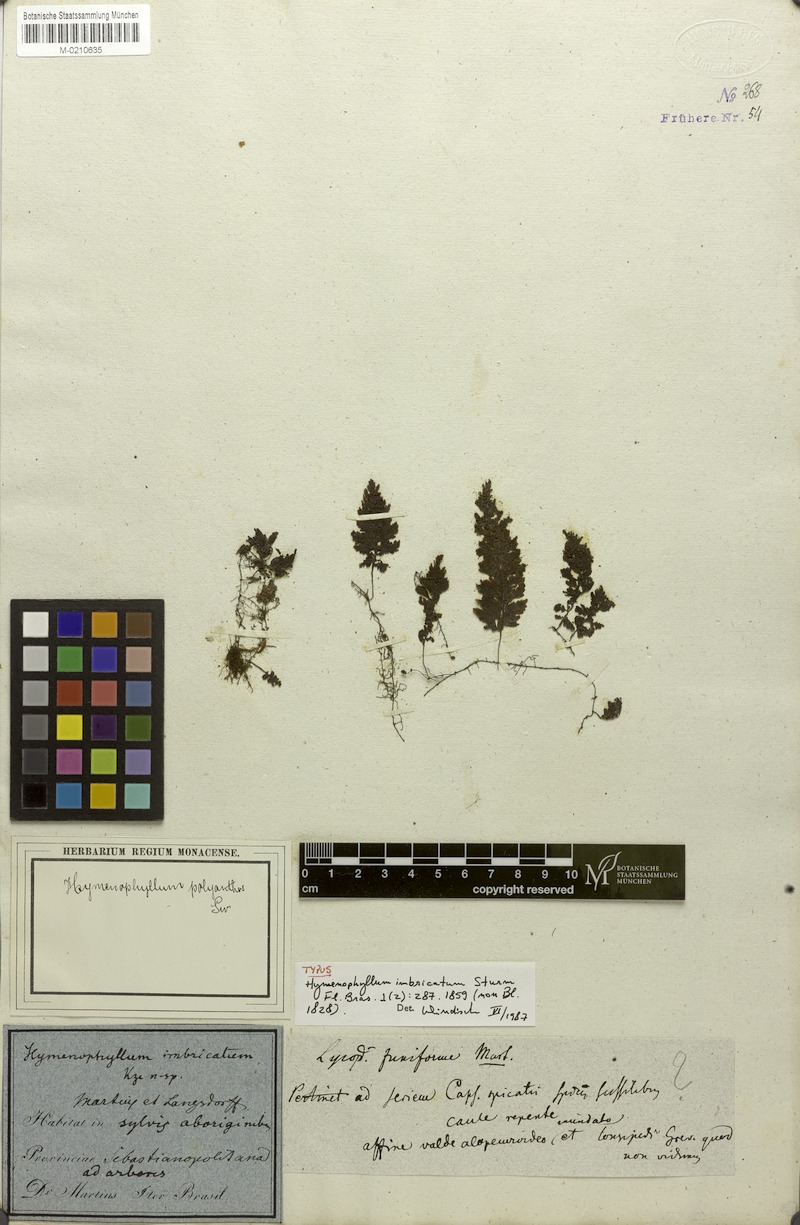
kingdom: Plantae
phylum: Tracheophyta
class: Polypodiopsida
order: Hymenophyllales
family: Hymenophyllaceae
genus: Hymenophyllum
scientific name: Hymenophyllum polyanthos
